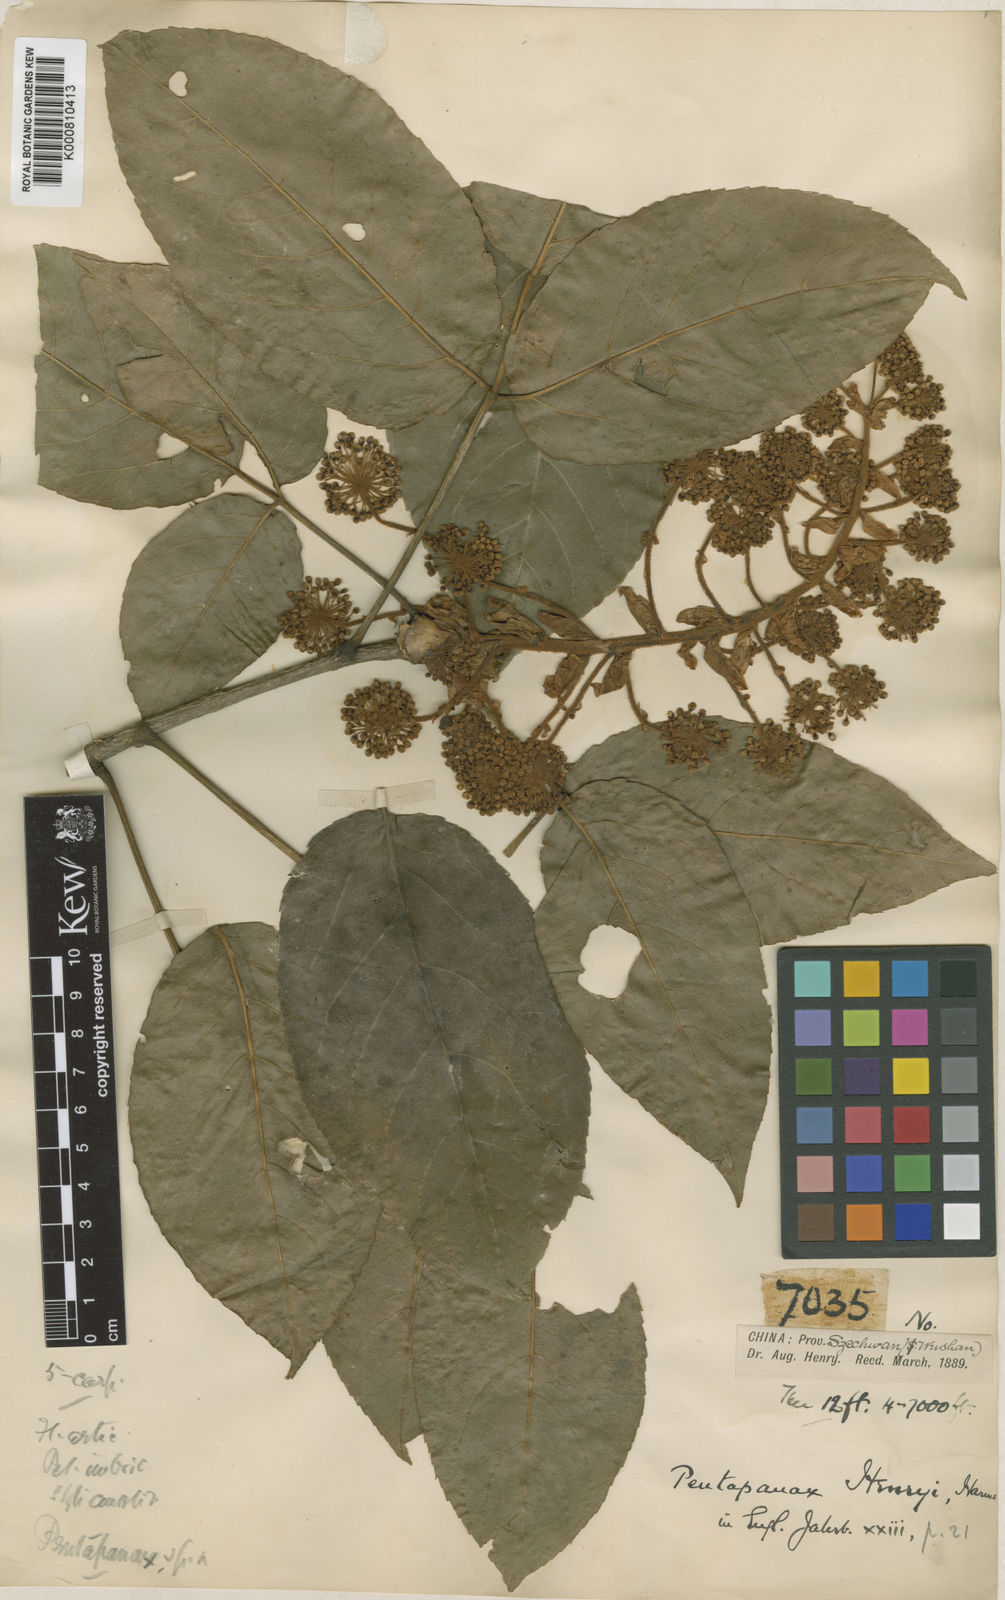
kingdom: Plantae
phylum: Tracheophyta
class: Magnoliopsida
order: Apiales
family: Araliaceae
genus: Aralia
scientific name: Aralia henryi
